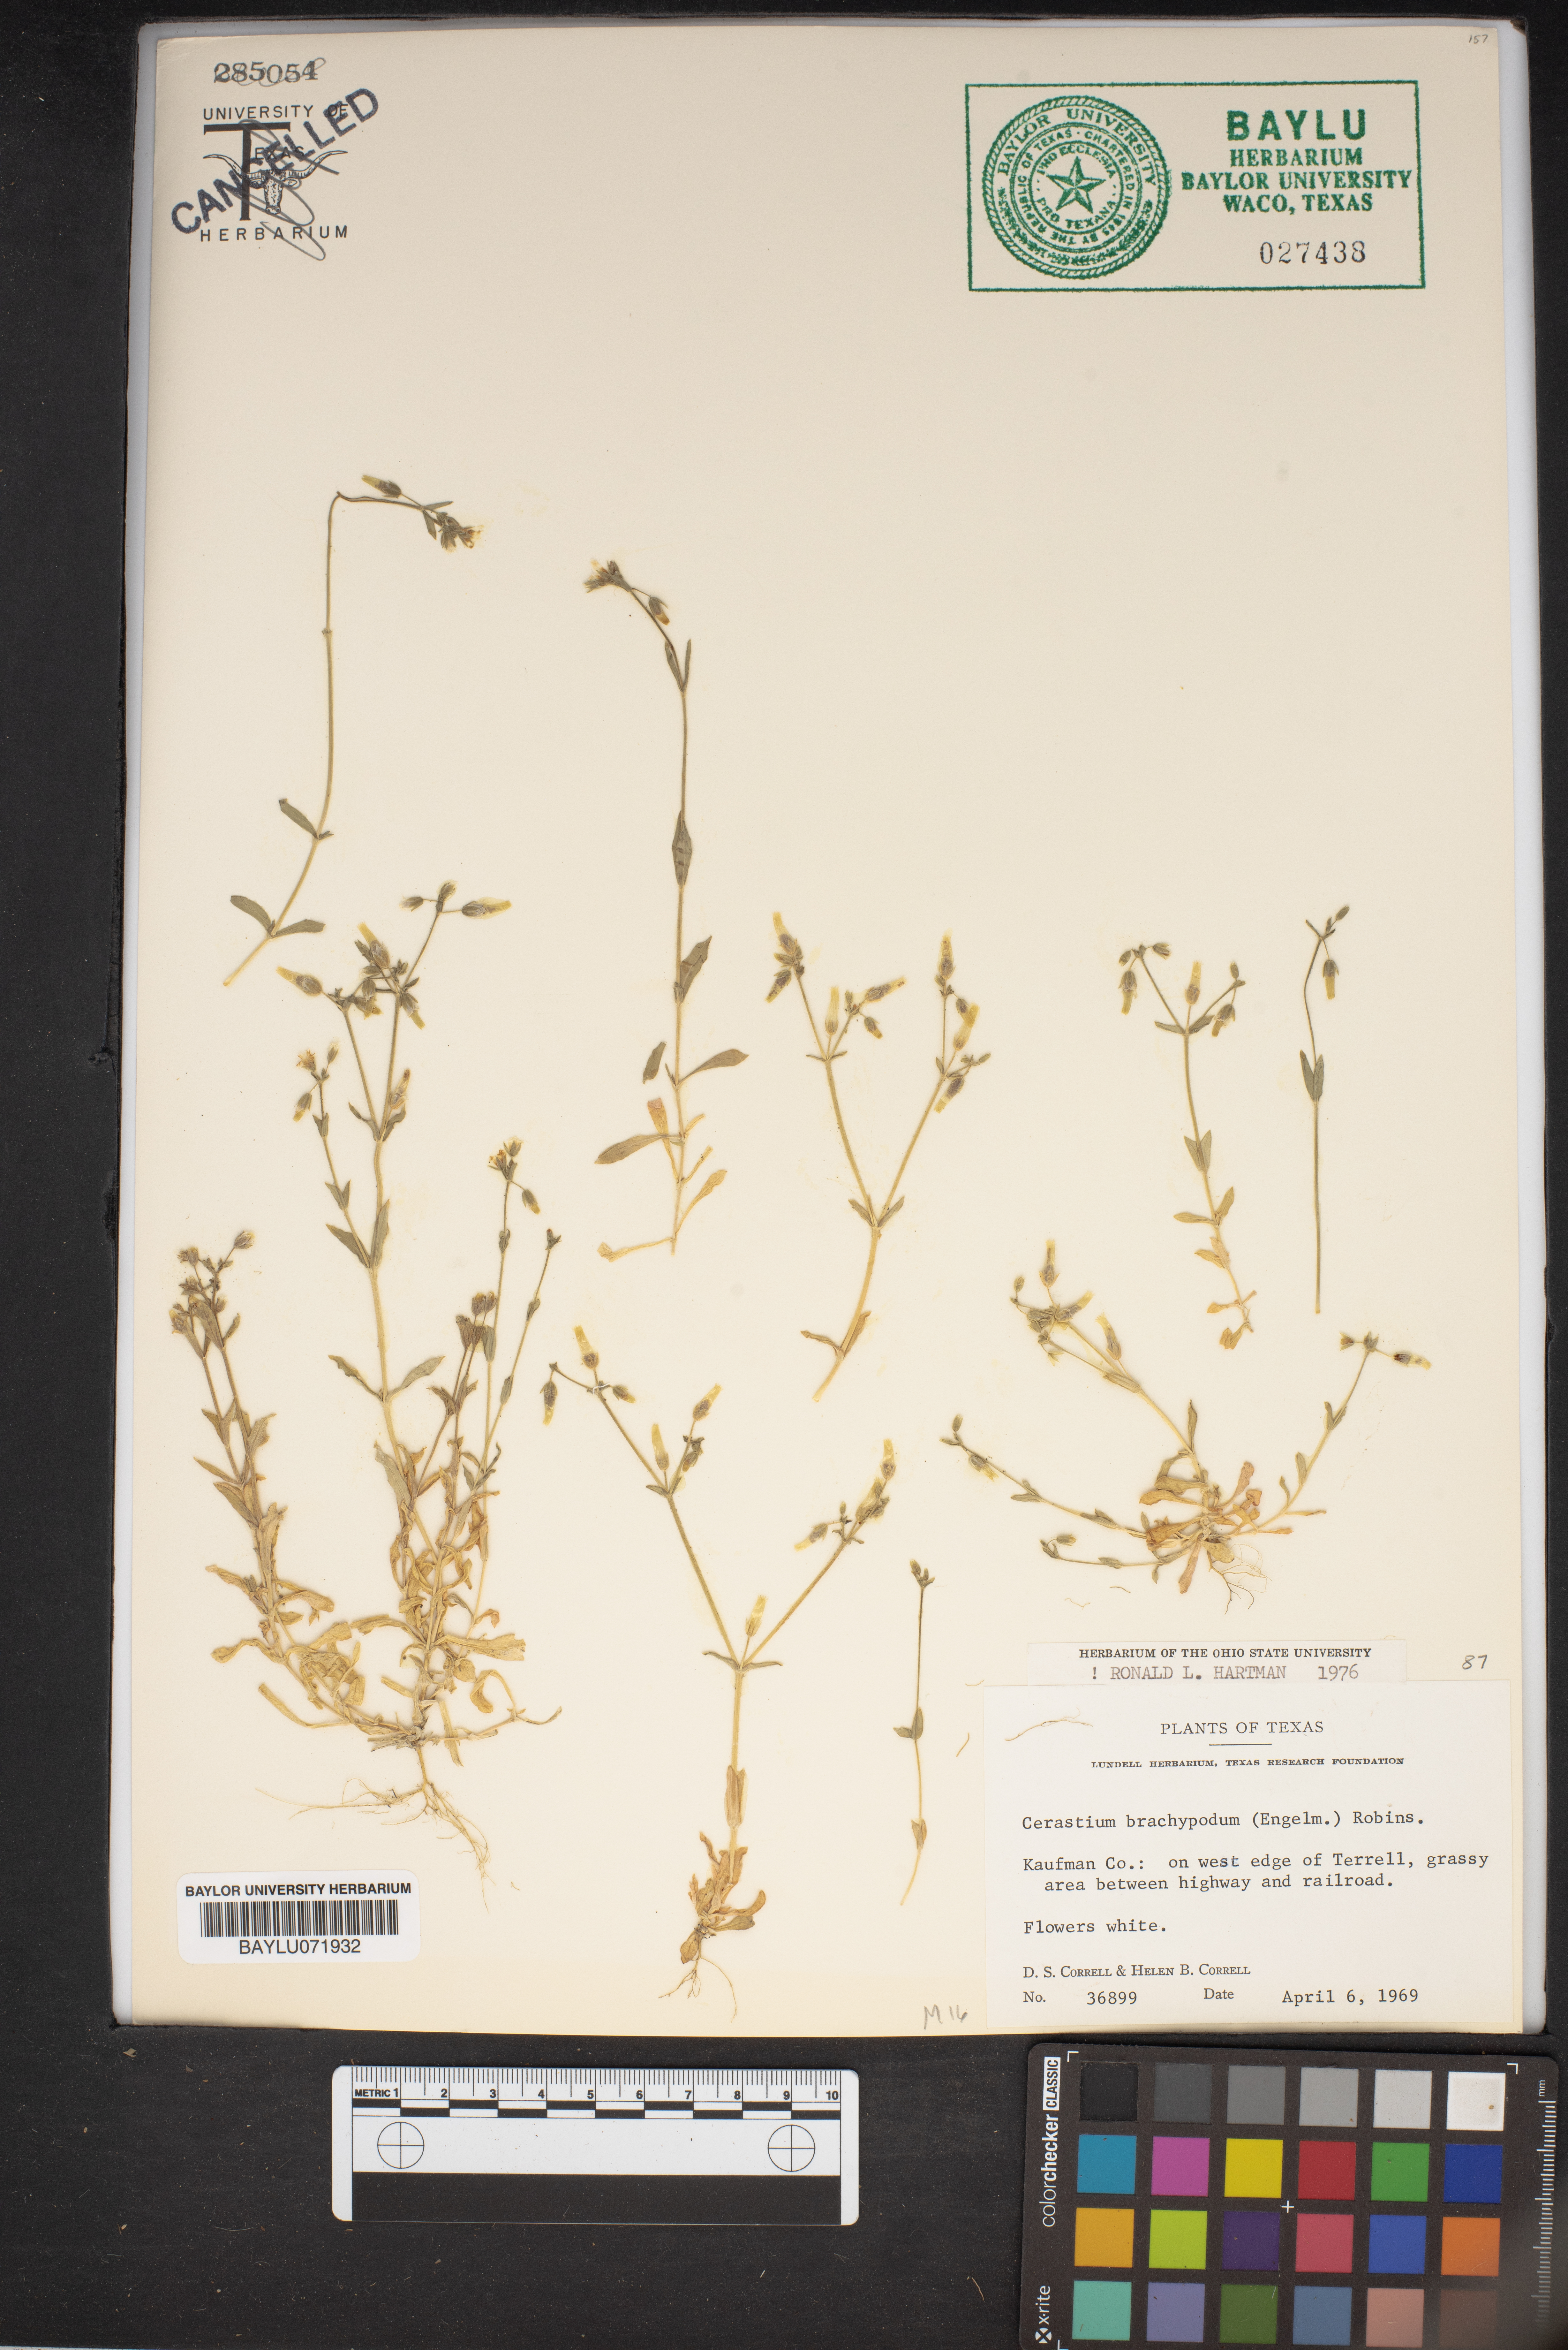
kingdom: Plantae
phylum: Tracheophyta
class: Magnoliopsida
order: Caryophyllales
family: Caryophyllaceae
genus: Cerastium
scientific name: Cerastium brachypodum
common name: Short-pedicelled nodding chickweed
